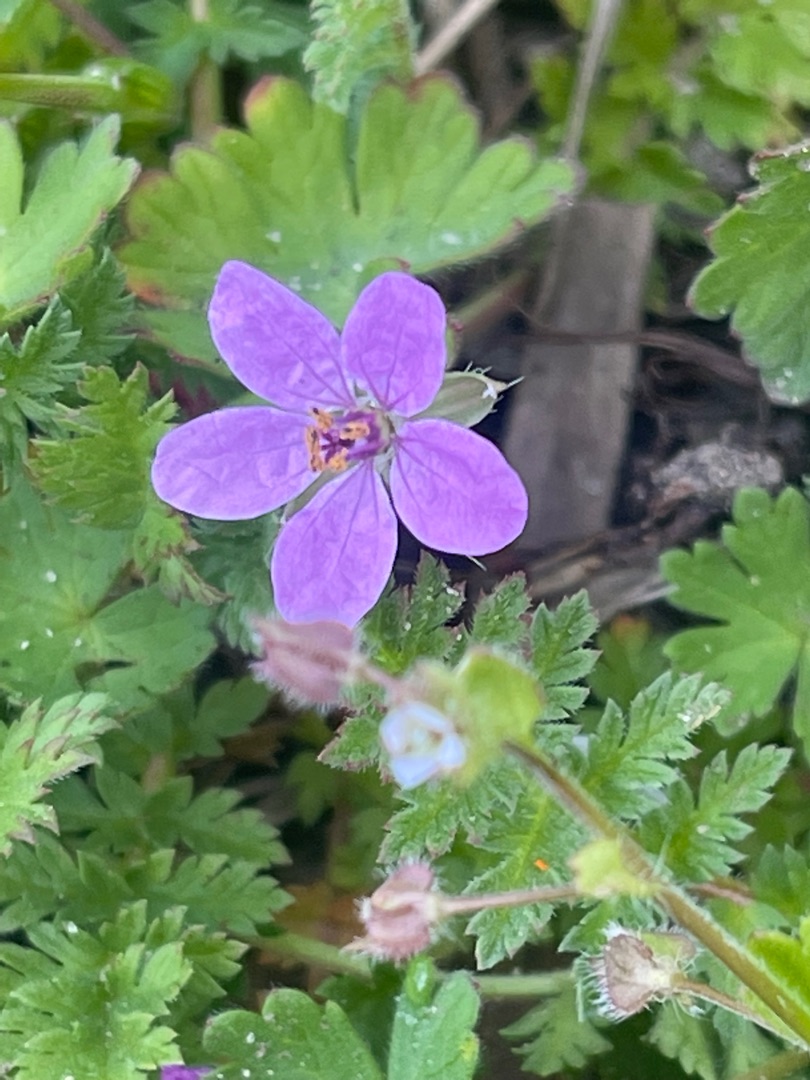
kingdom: Plantae
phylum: Tracheophyta
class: Magnoliopsida
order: Geraniales
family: Geraniaceae
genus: Erodium
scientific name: Erodium cicutarium
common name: Hejrenæb
